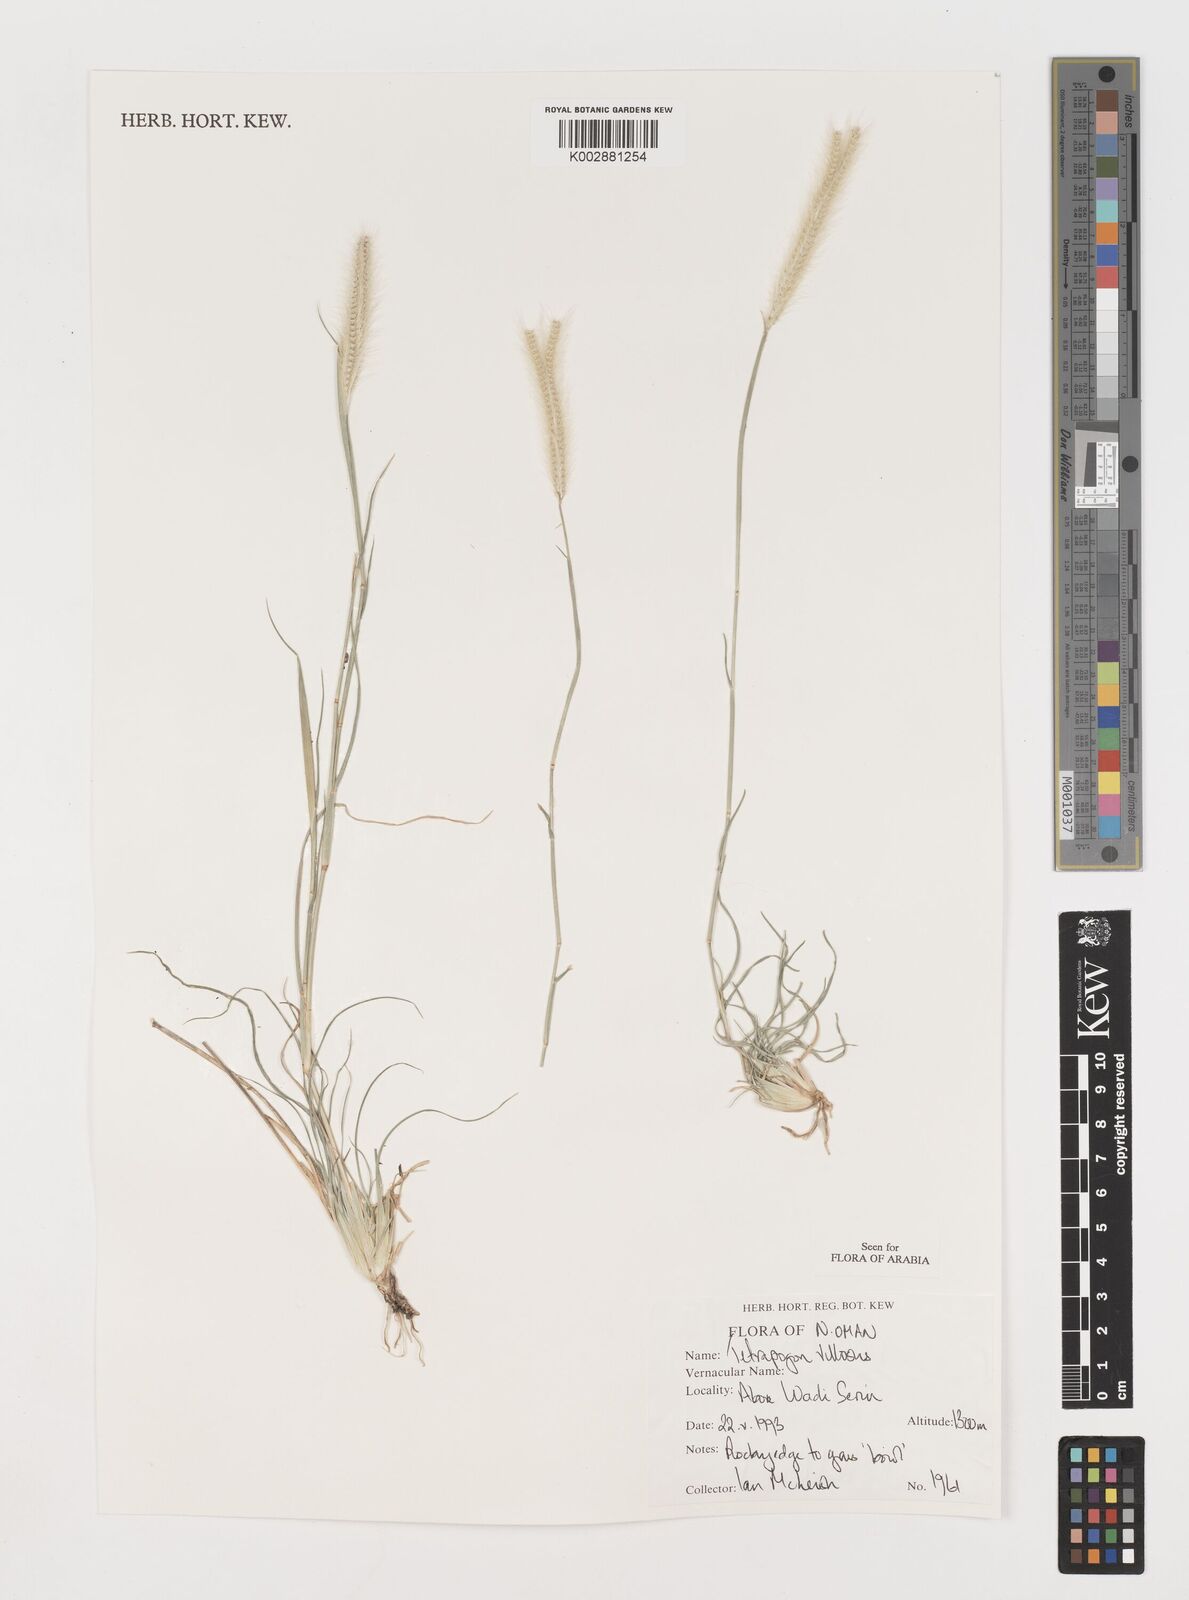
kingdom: Plantae
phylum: Tracheophyta
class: Liliopsida
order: Poales
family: Poaceae
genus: Tetrapogon
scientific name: Tetrapogon villosus
